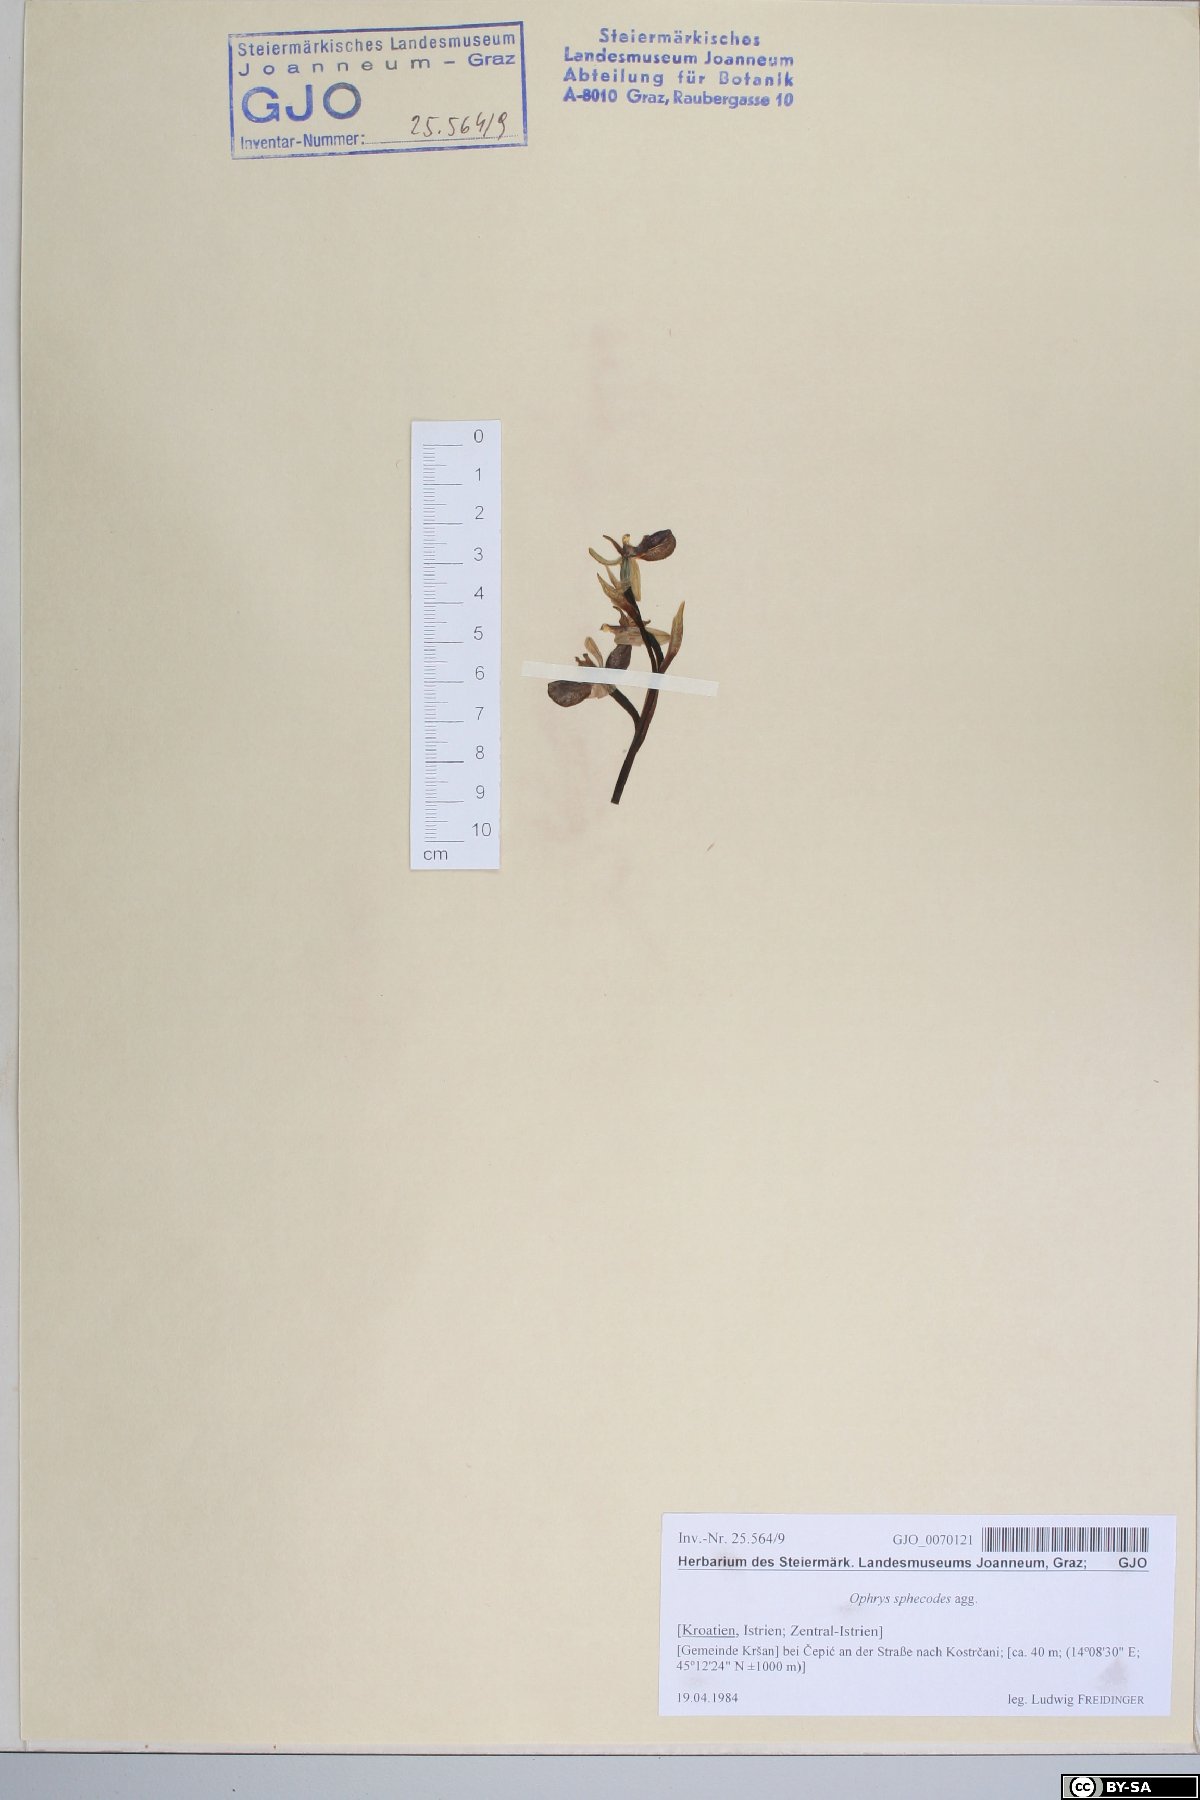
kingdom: Plantae
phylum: Tracheophyta
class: Liliopsida
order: Asparagales
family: Orchidaceae
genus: Ophrys
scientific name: Ophrys sphegodes
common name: Early spider-orchid
